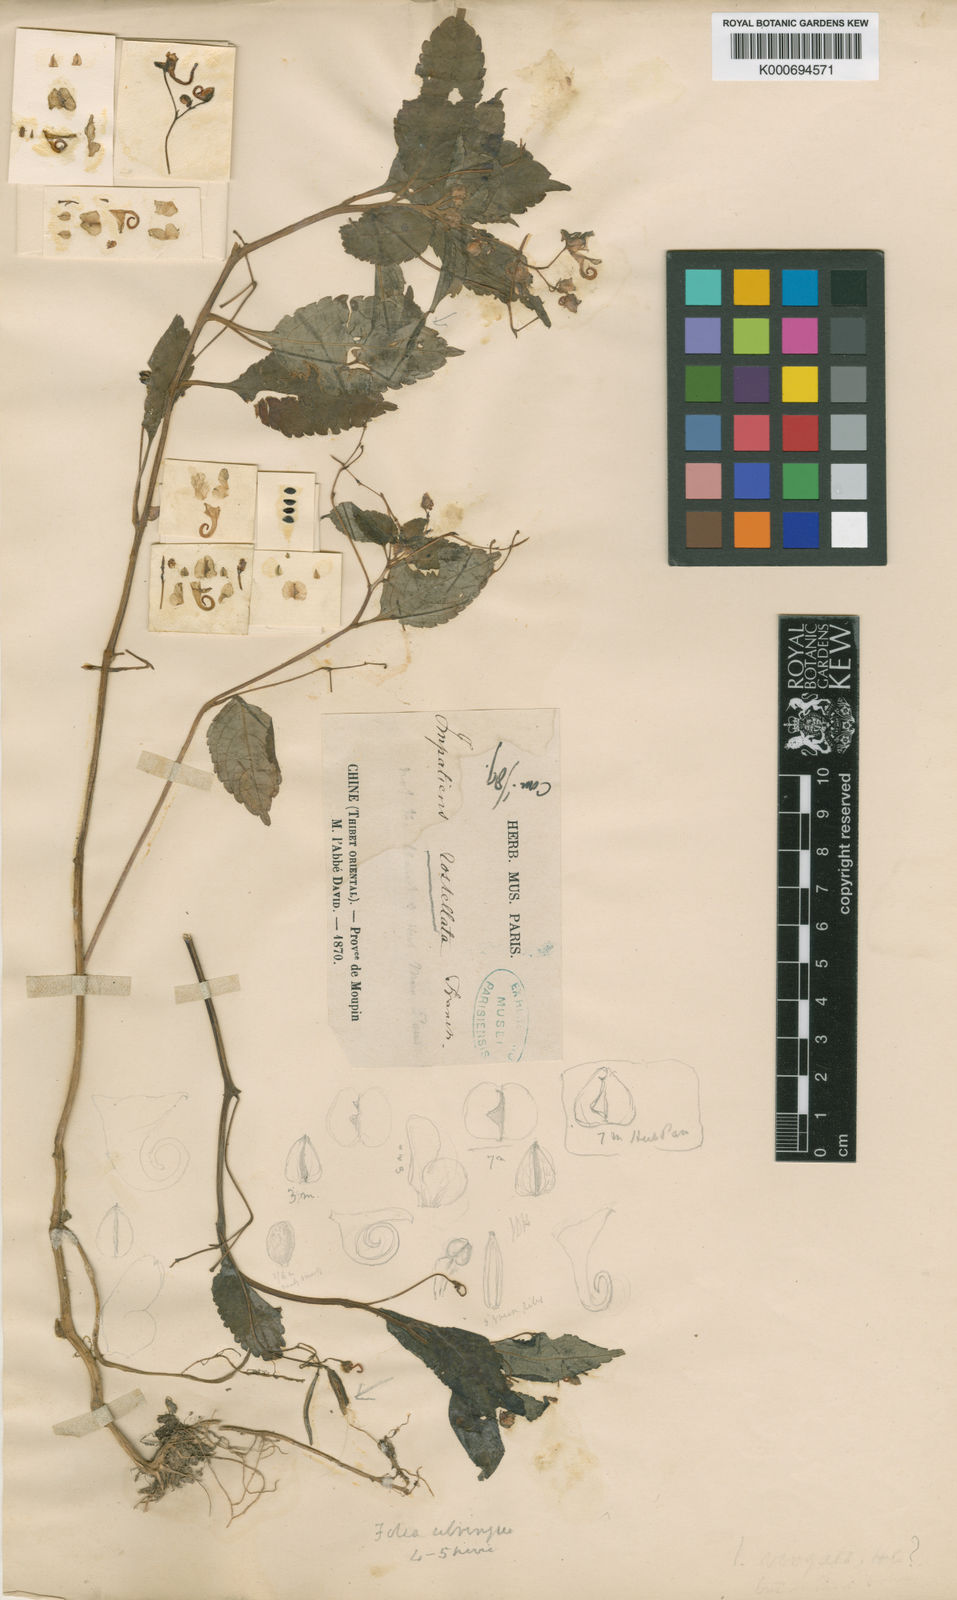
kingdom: Plantae
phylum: Tracheophyta
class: Magnoliopsida
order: Ericales
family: Balsaminaceae
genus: Impatiens
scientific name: Impatiens rostellata
